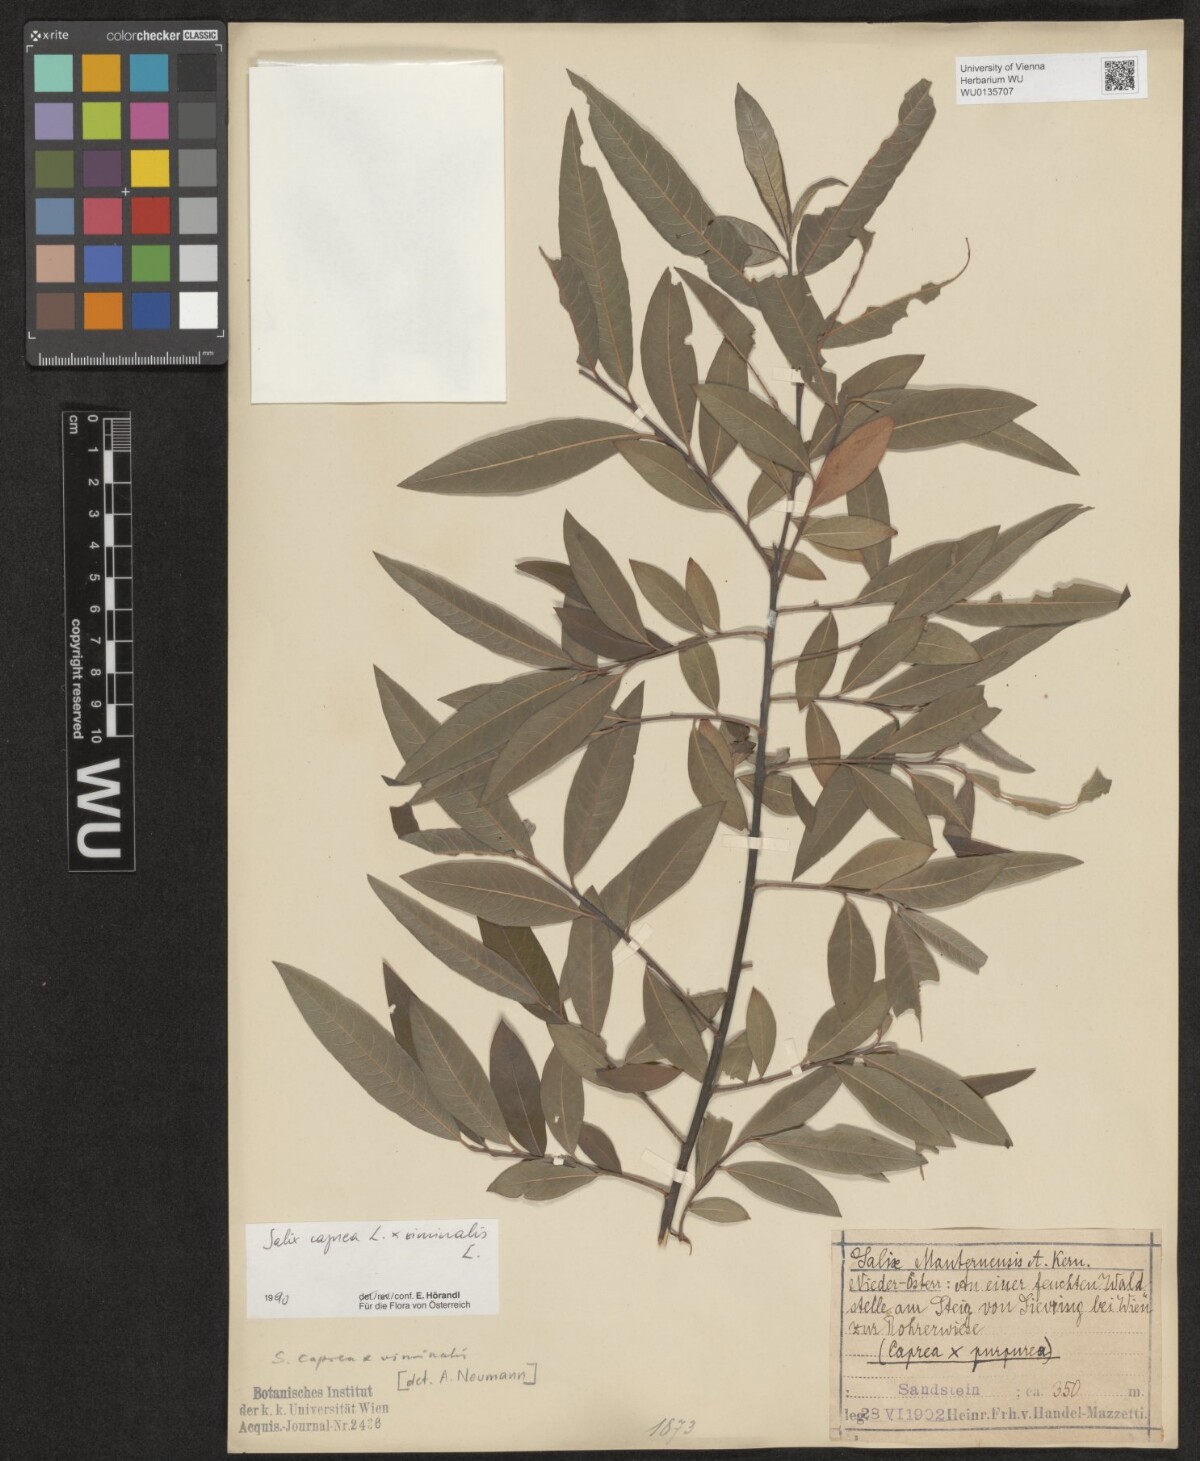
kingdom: Plantae
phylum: Tracheophyta
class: Magnoliopsida
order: Malpighiales
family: Salicaceae
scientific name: Salicaceae
